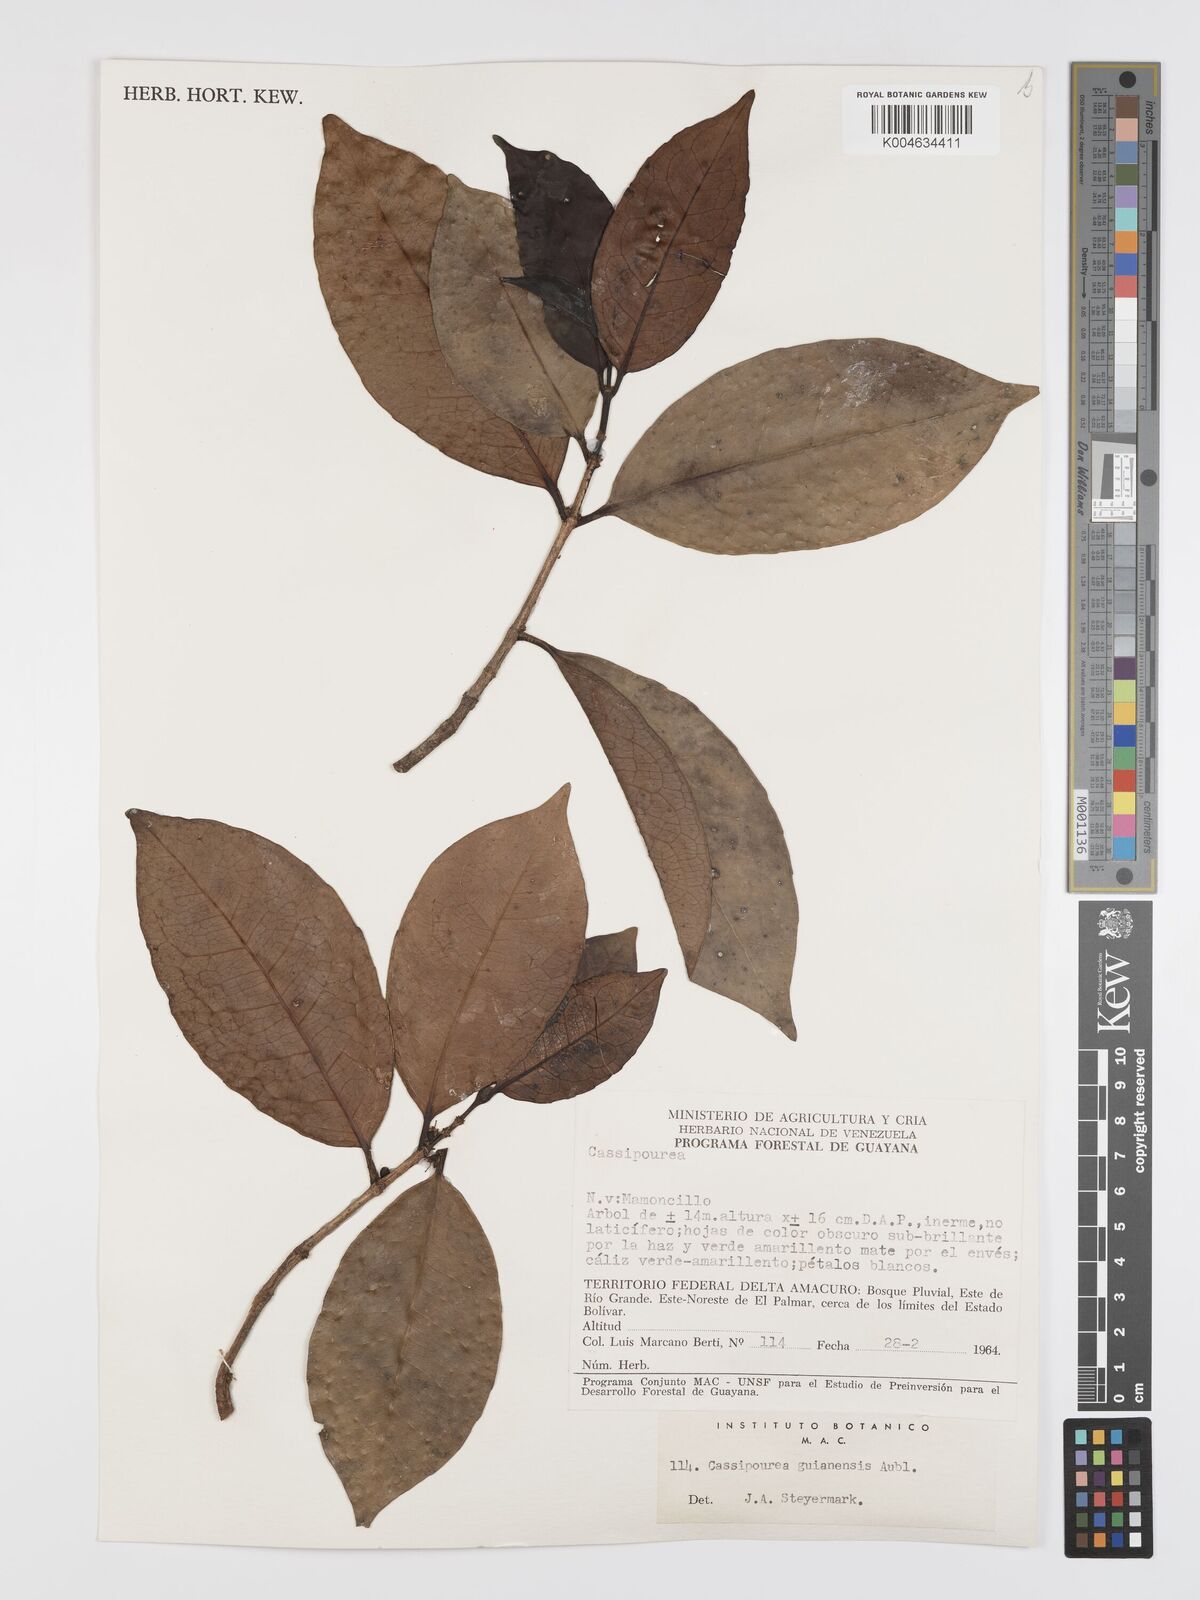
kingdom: Plantae
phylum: Tracheophyta
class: Magnoliopsida
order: Malpighiales
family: Rhizophoraceae
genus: Cassipourea
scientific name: Cassipourea guianensis
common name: Bastard waterwood
